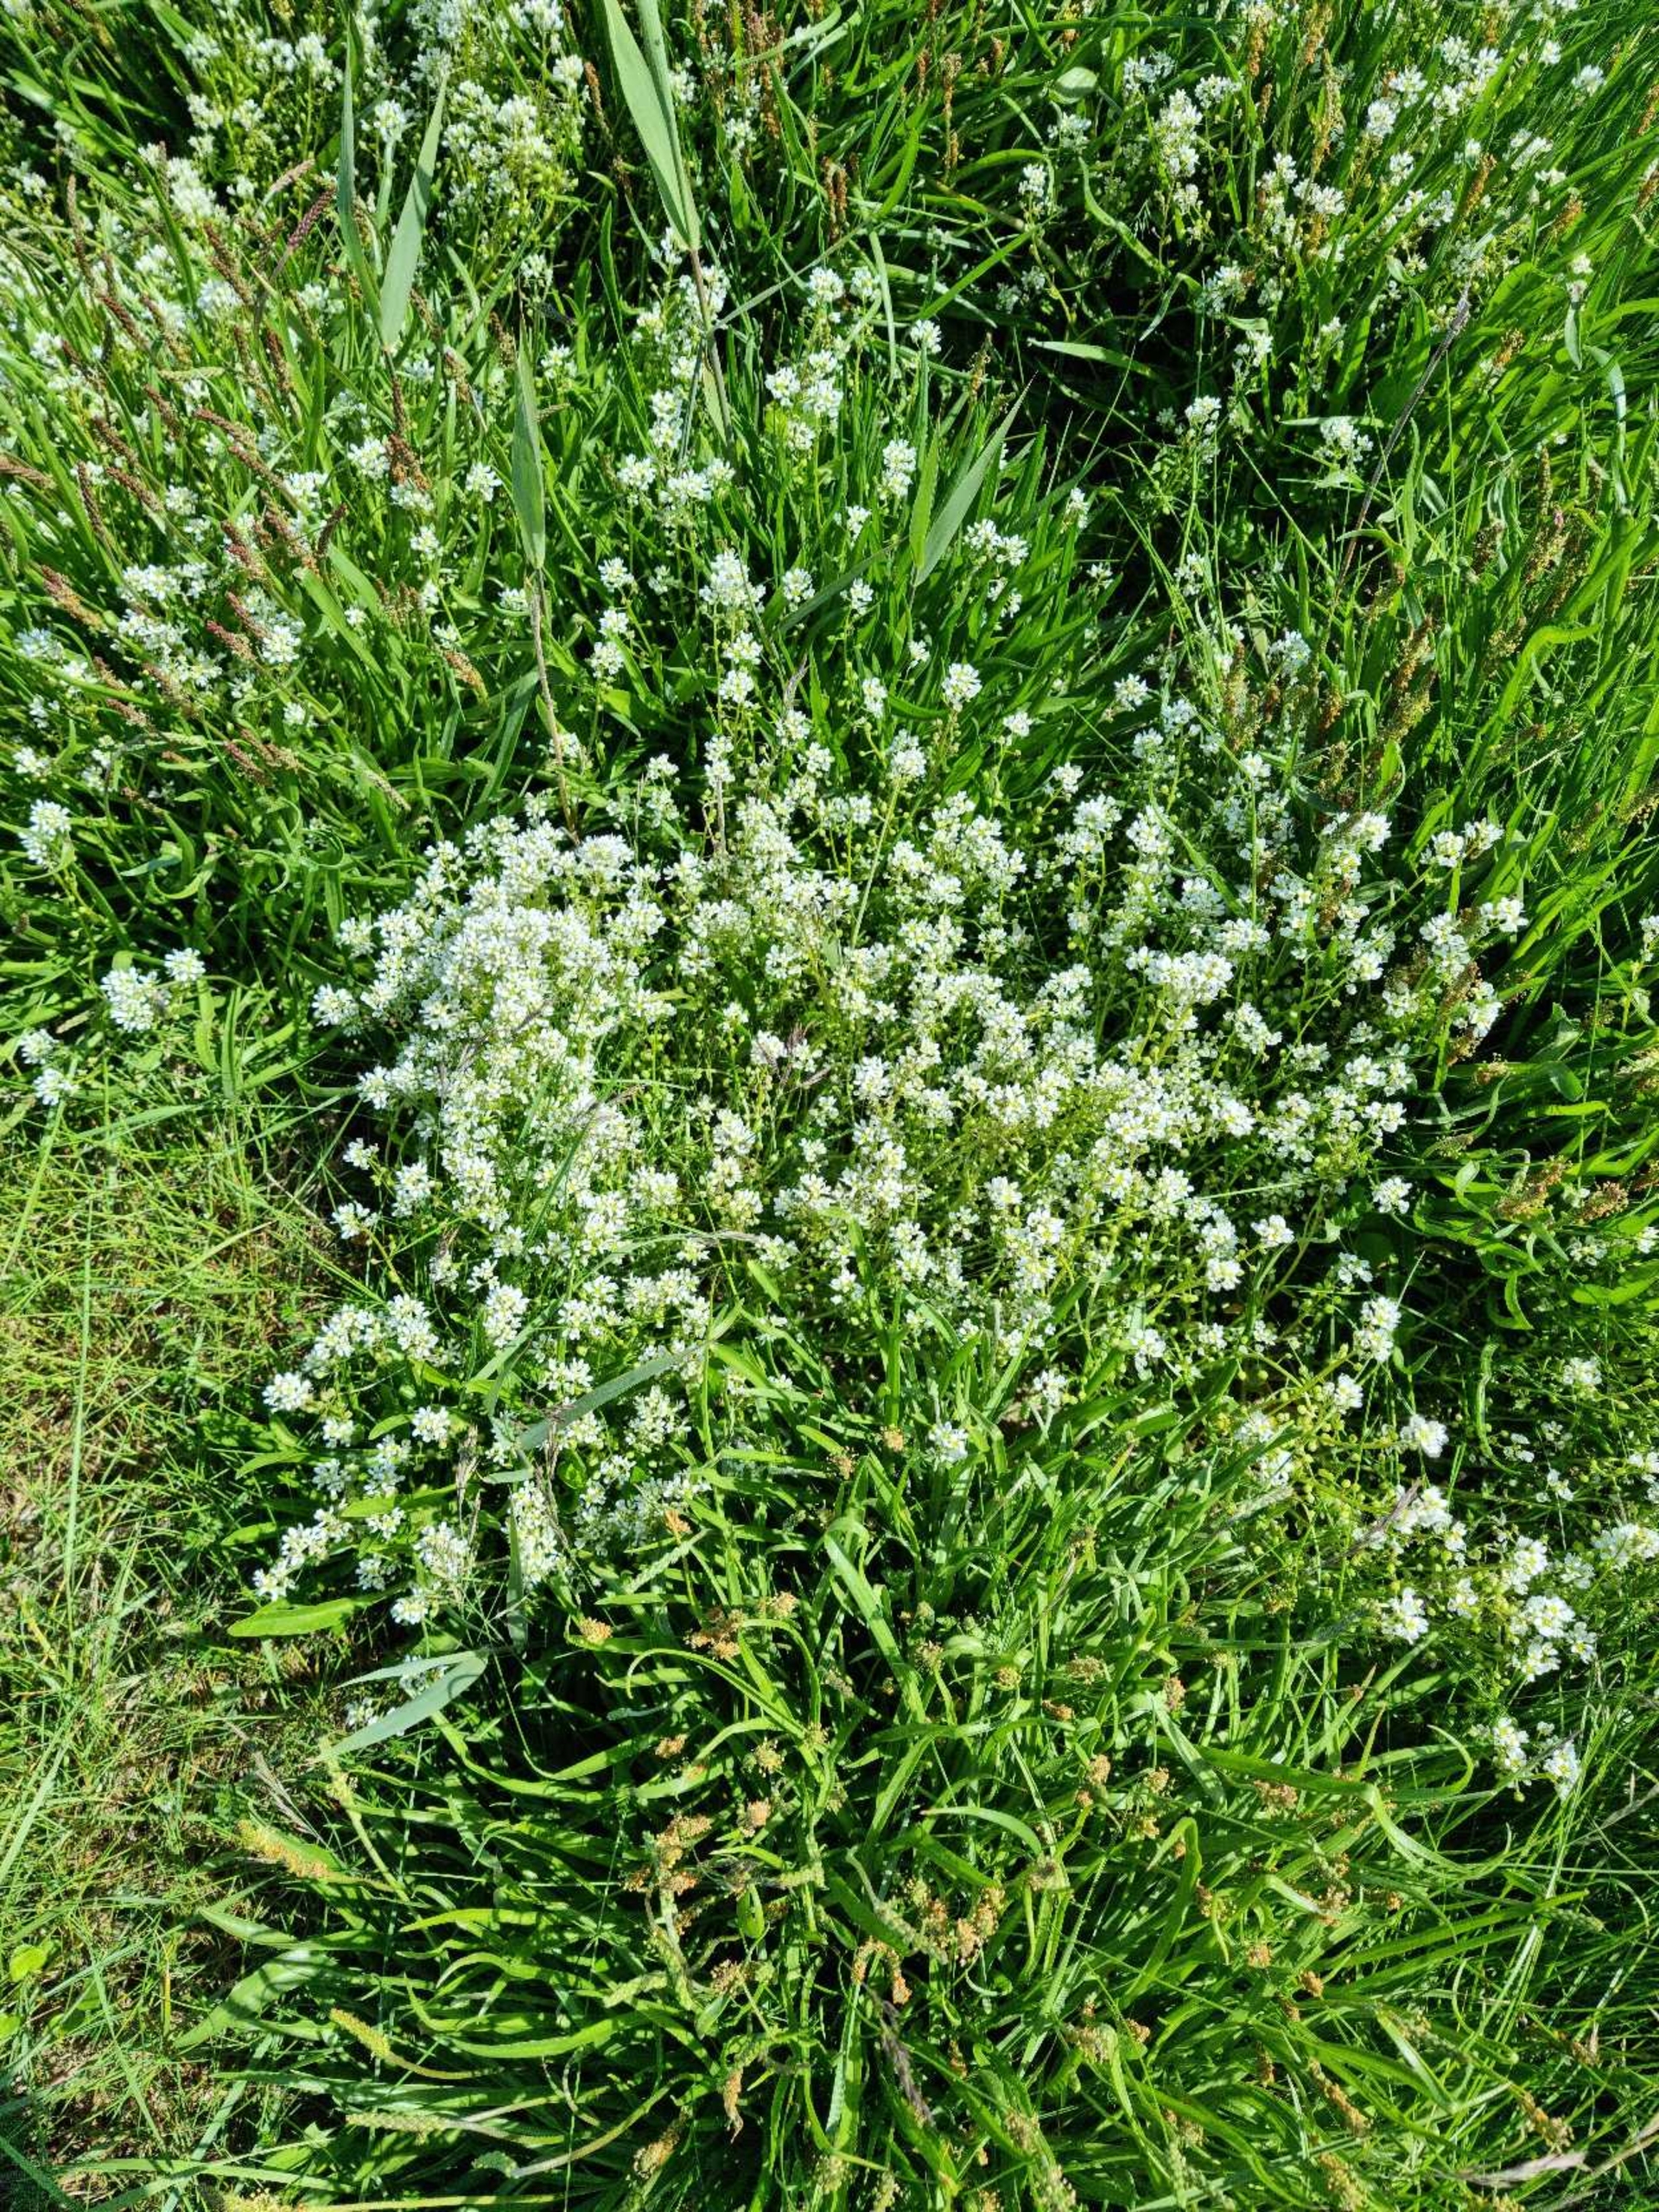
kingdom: Plantae
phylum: Tracheophyta
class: Magnoliopsida
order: Brassicales
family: Brassicaceae
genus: Cochlearia
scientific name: Cochlearia officinalis
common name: Læge-kokleare (underart)
